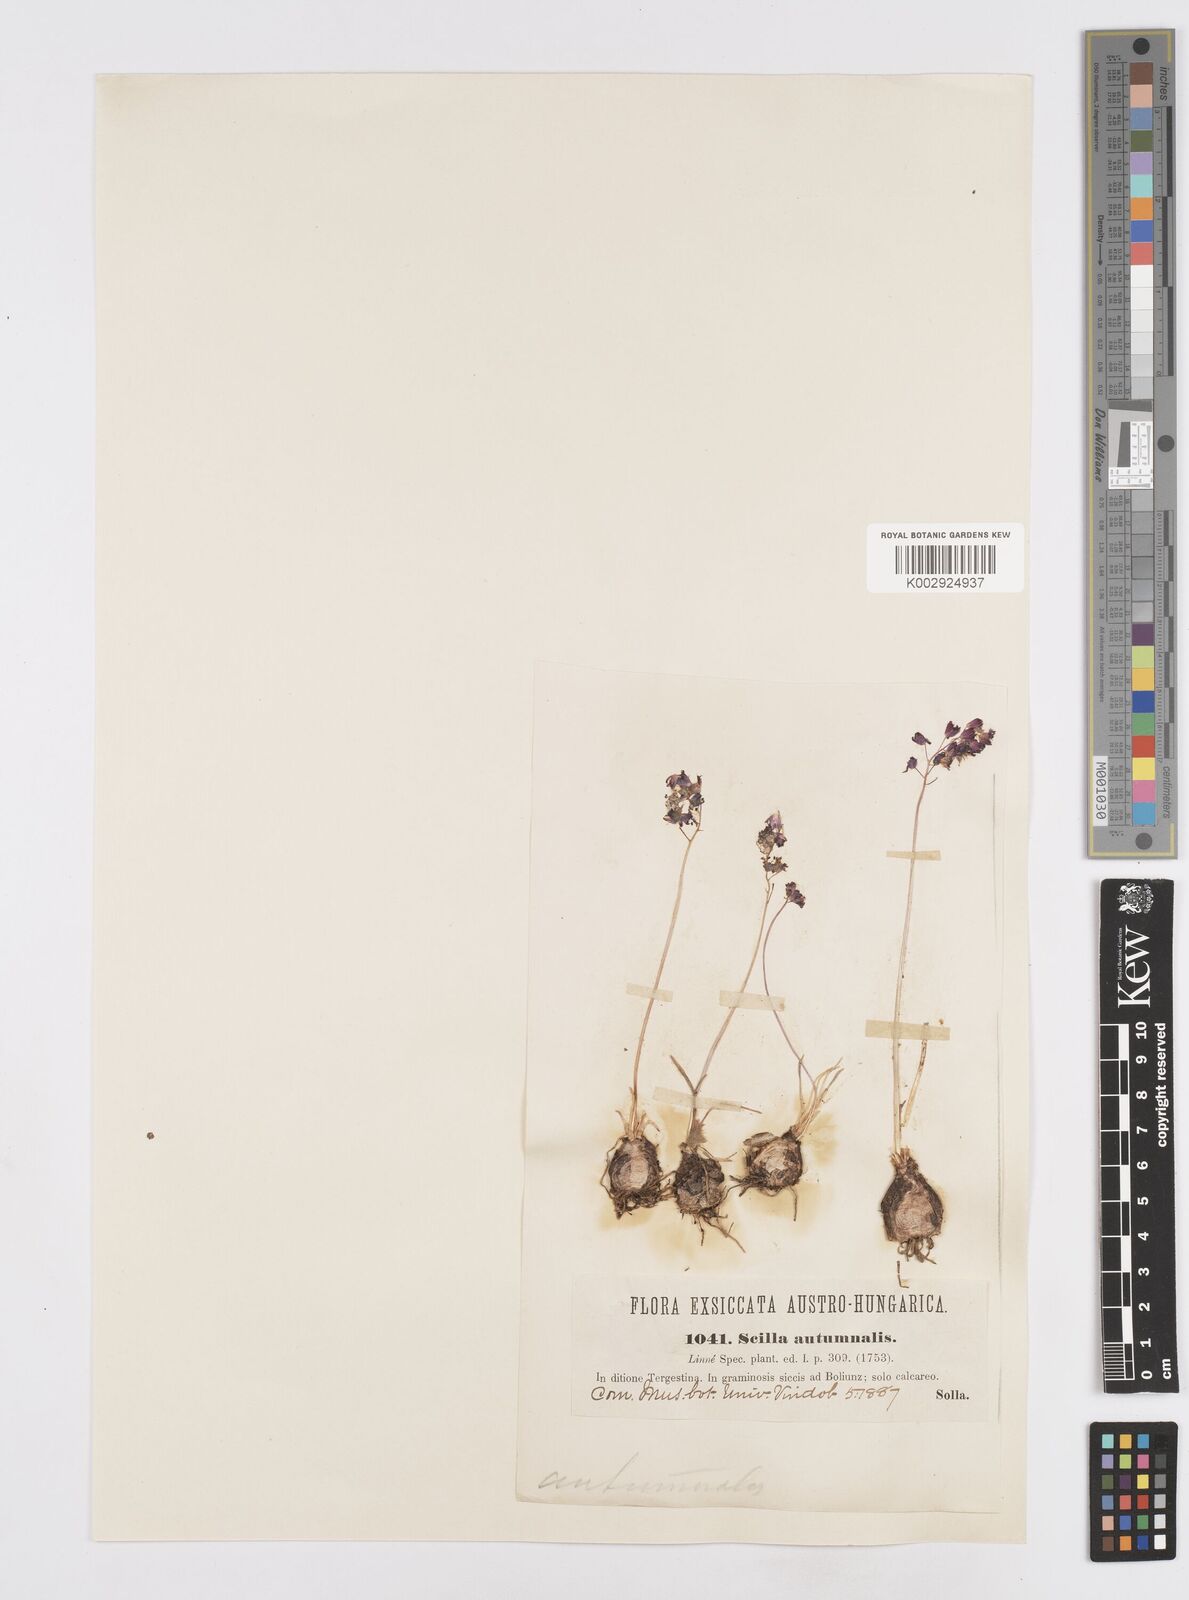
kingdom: Plantae
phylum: Tracheophyta
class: Liliopsida
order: Asparagales
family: Asparagaceae
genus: Prospero
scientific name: Prospero autumnale
